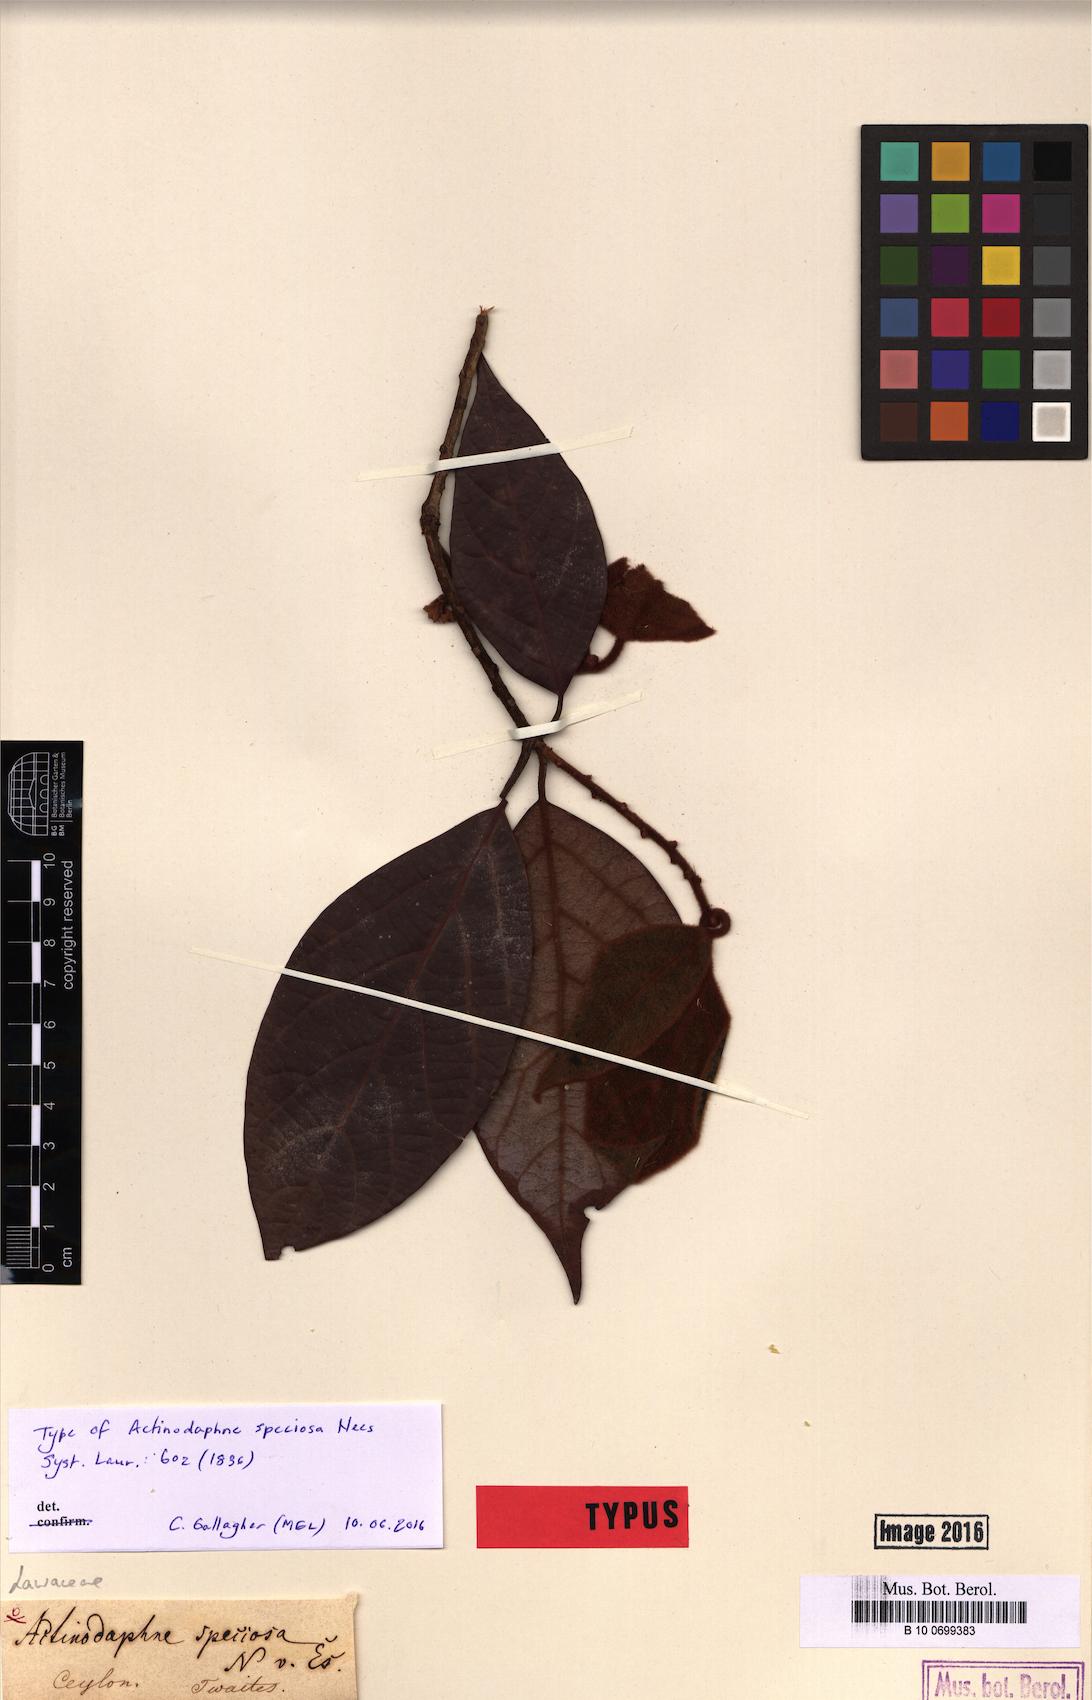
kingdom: Plantae
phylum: Tracheophyta
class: Magnoliopsida
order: Laurales
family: Lauraceae
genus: Actinodaphne
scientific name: Actinodaphne speciosa
